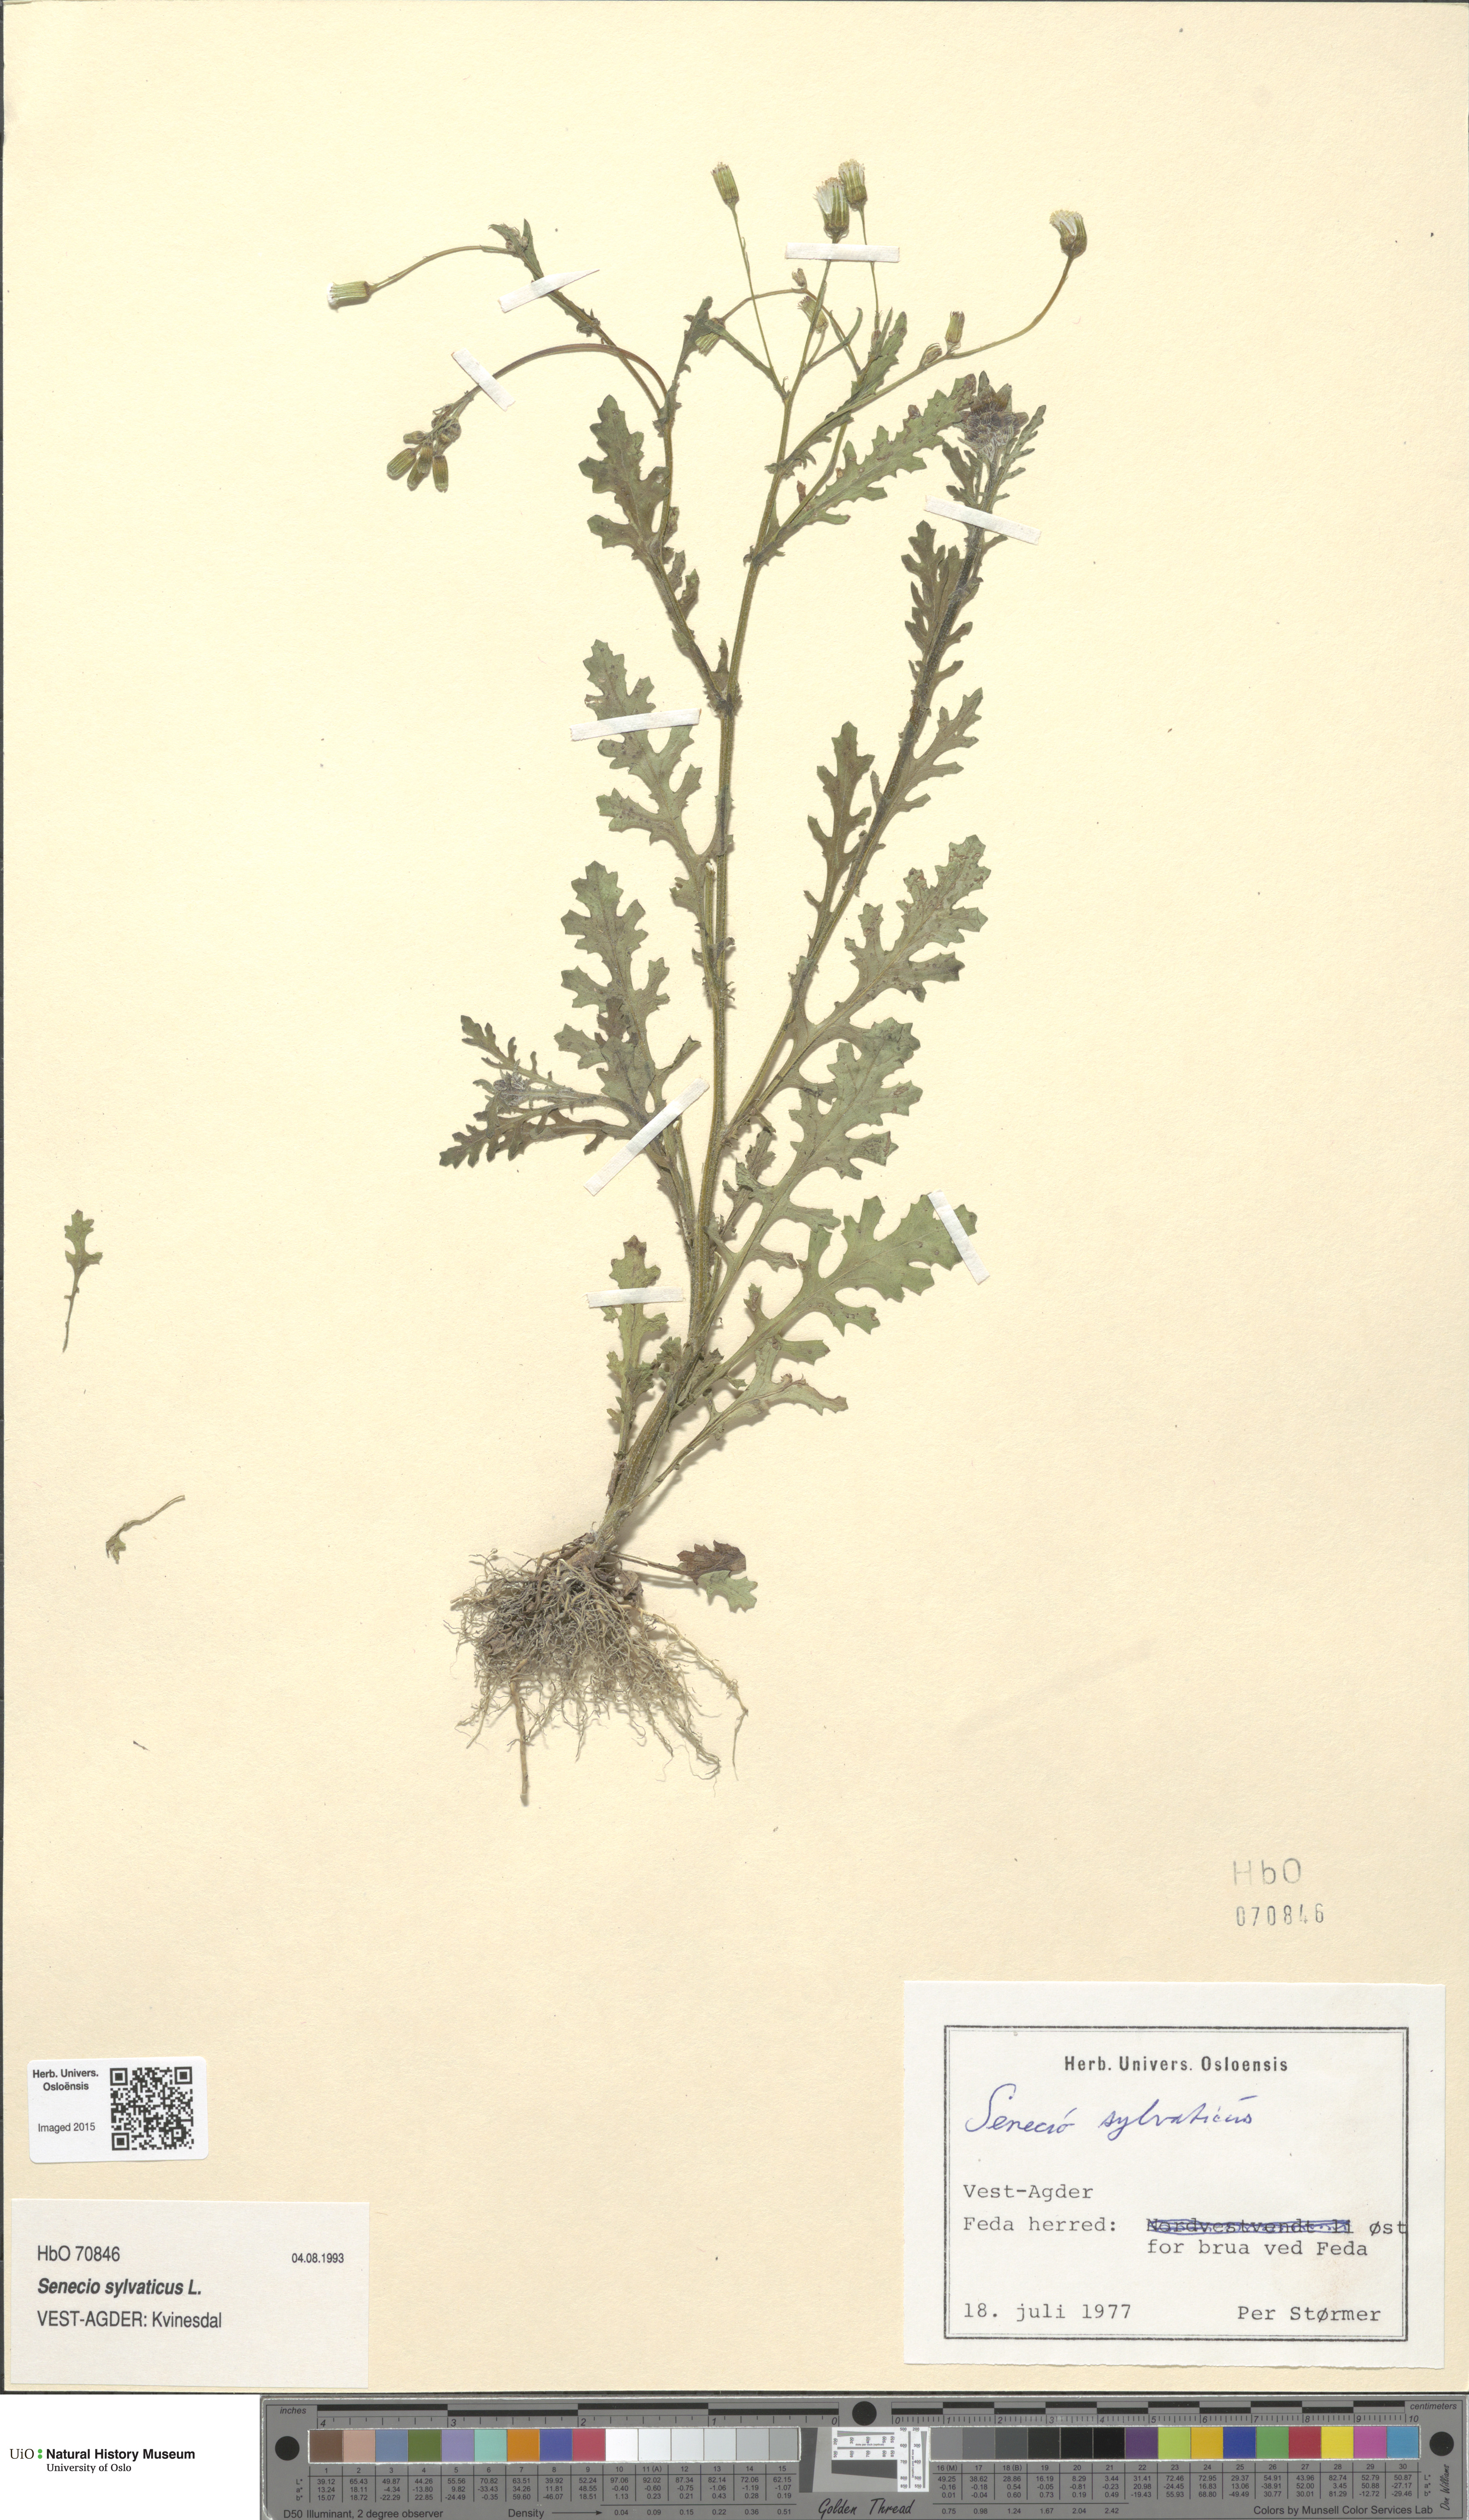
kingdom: Plantae
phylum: Tracheophyta
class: Magnoliopsida
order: Asterales
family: Asteraceae
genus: Senecio
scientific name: Senecio sylvaticus
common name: Woodland ragwort
